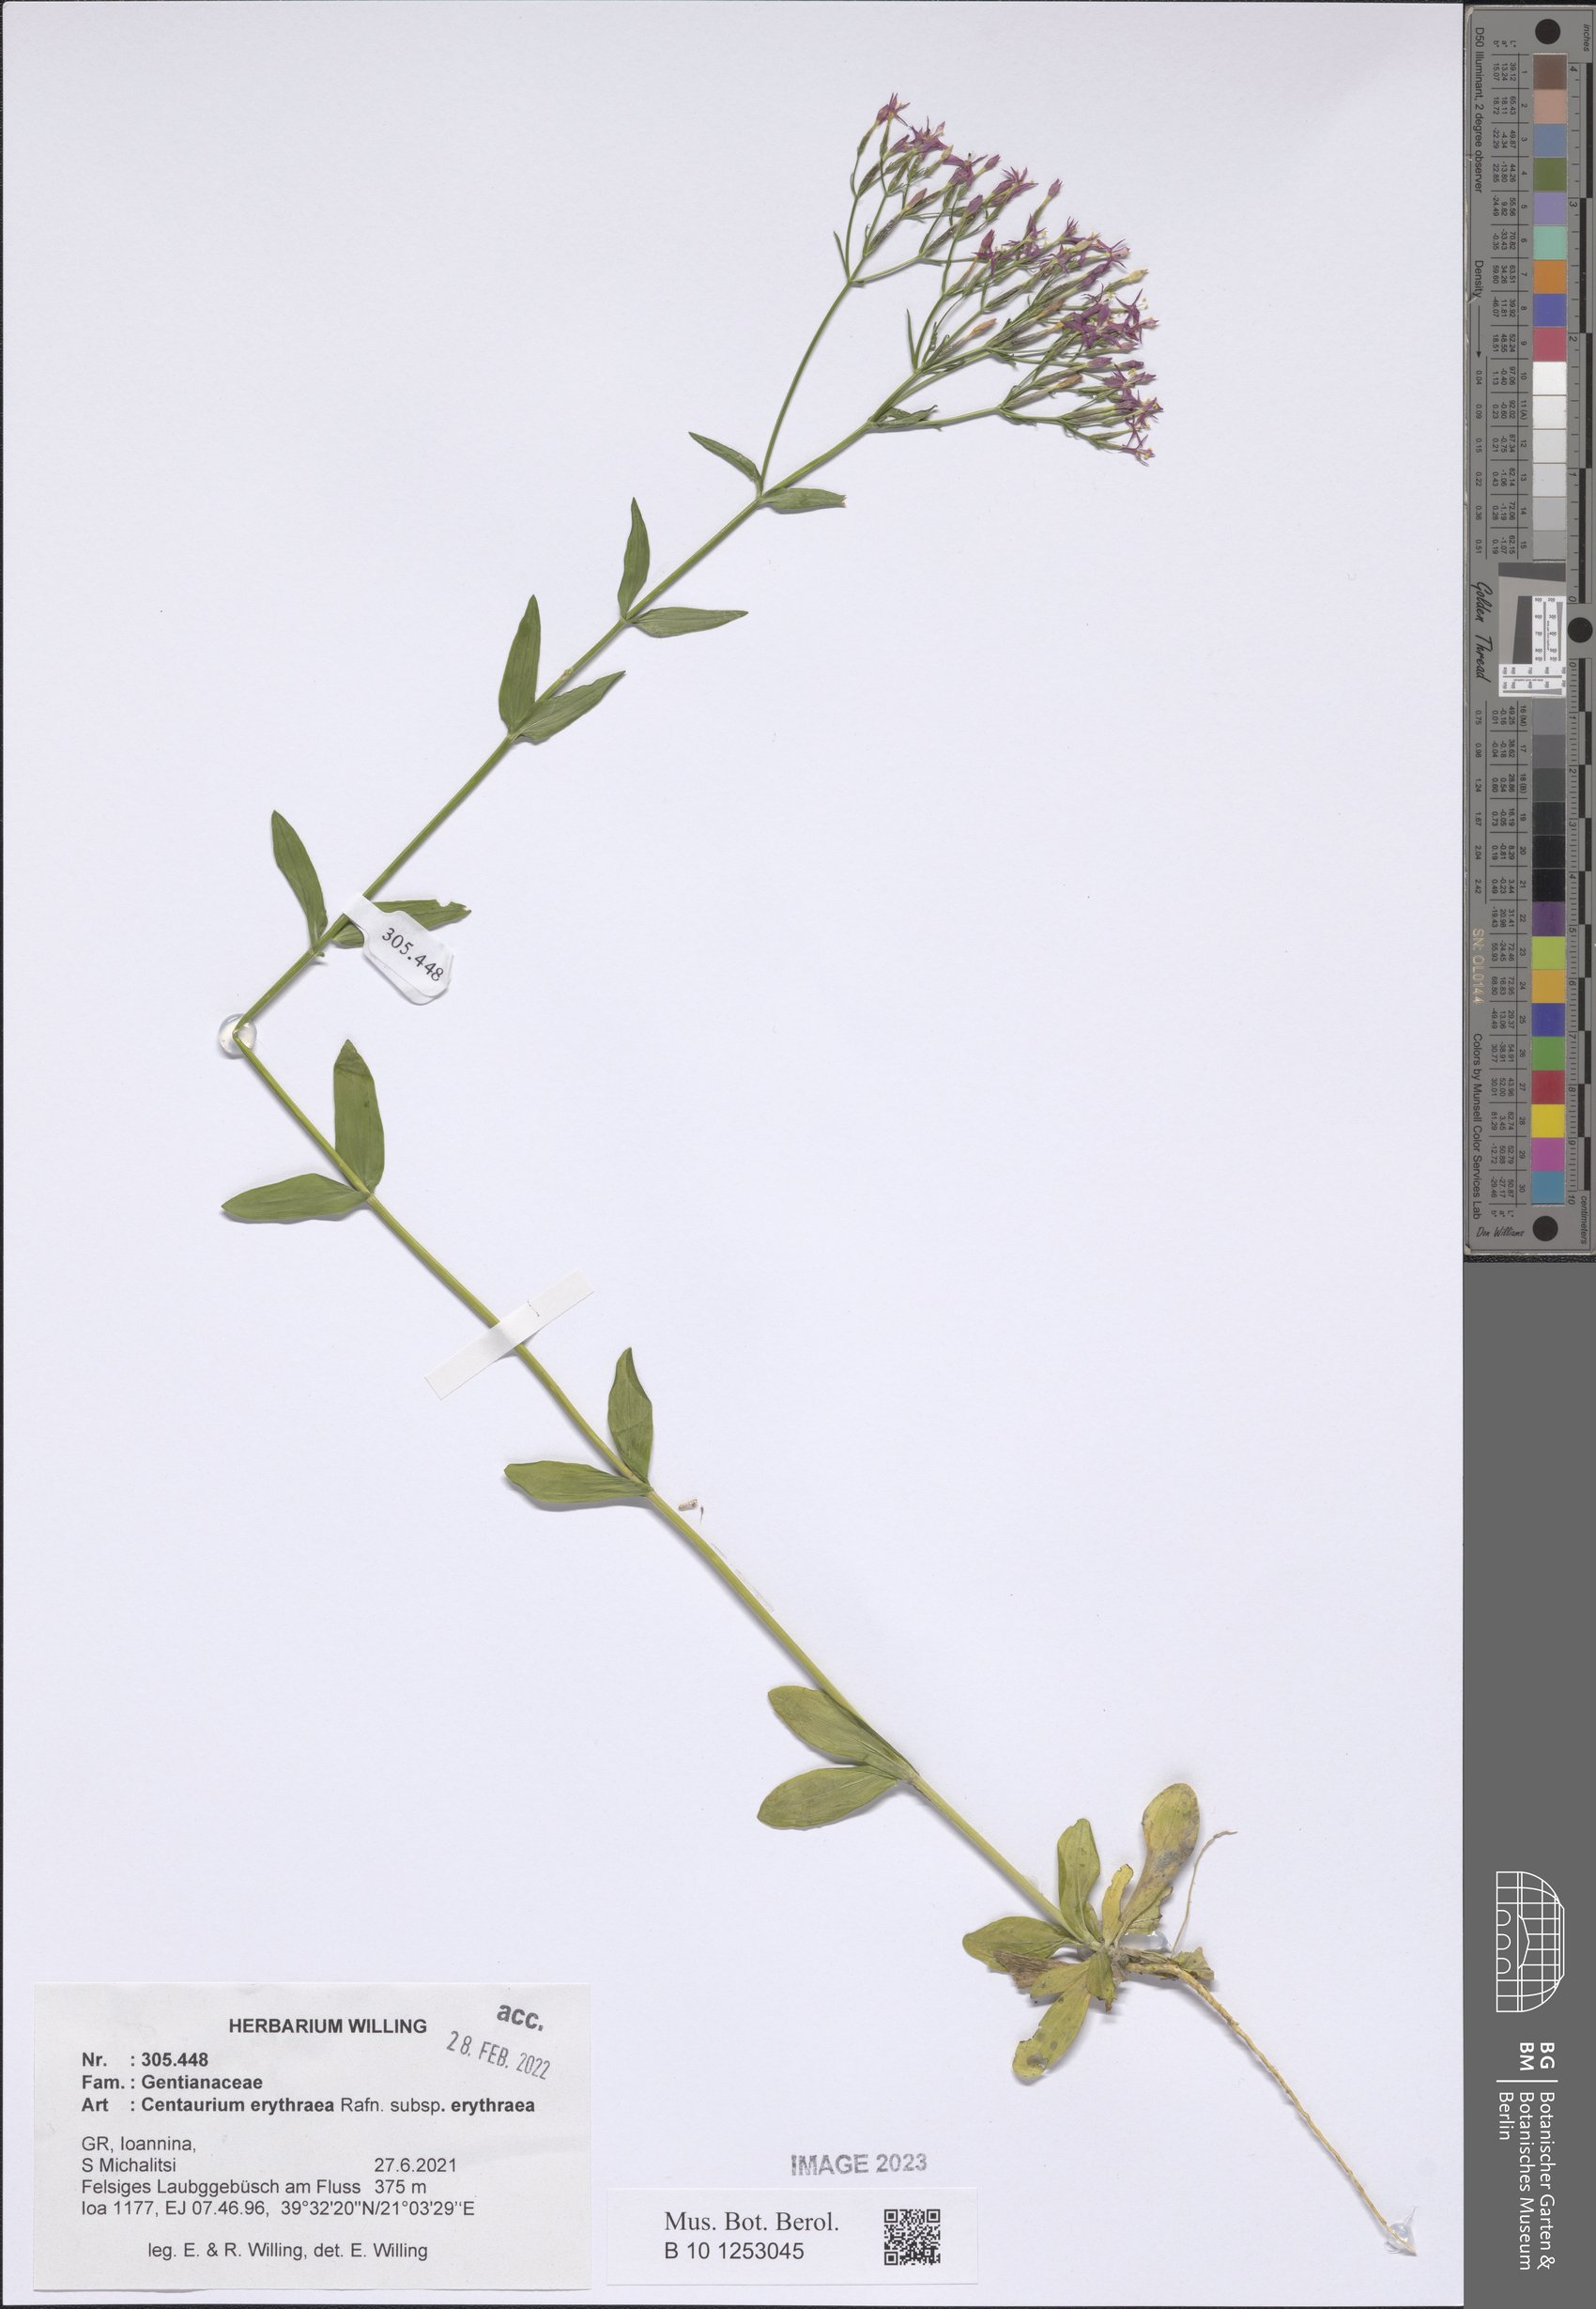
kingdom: Plantae
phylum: Tracheophyta
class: Magnoliopsida
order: Gentianales
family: Gentianaceae
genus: Centaurium
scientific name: Centaurium erythraea
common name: Common centaury
